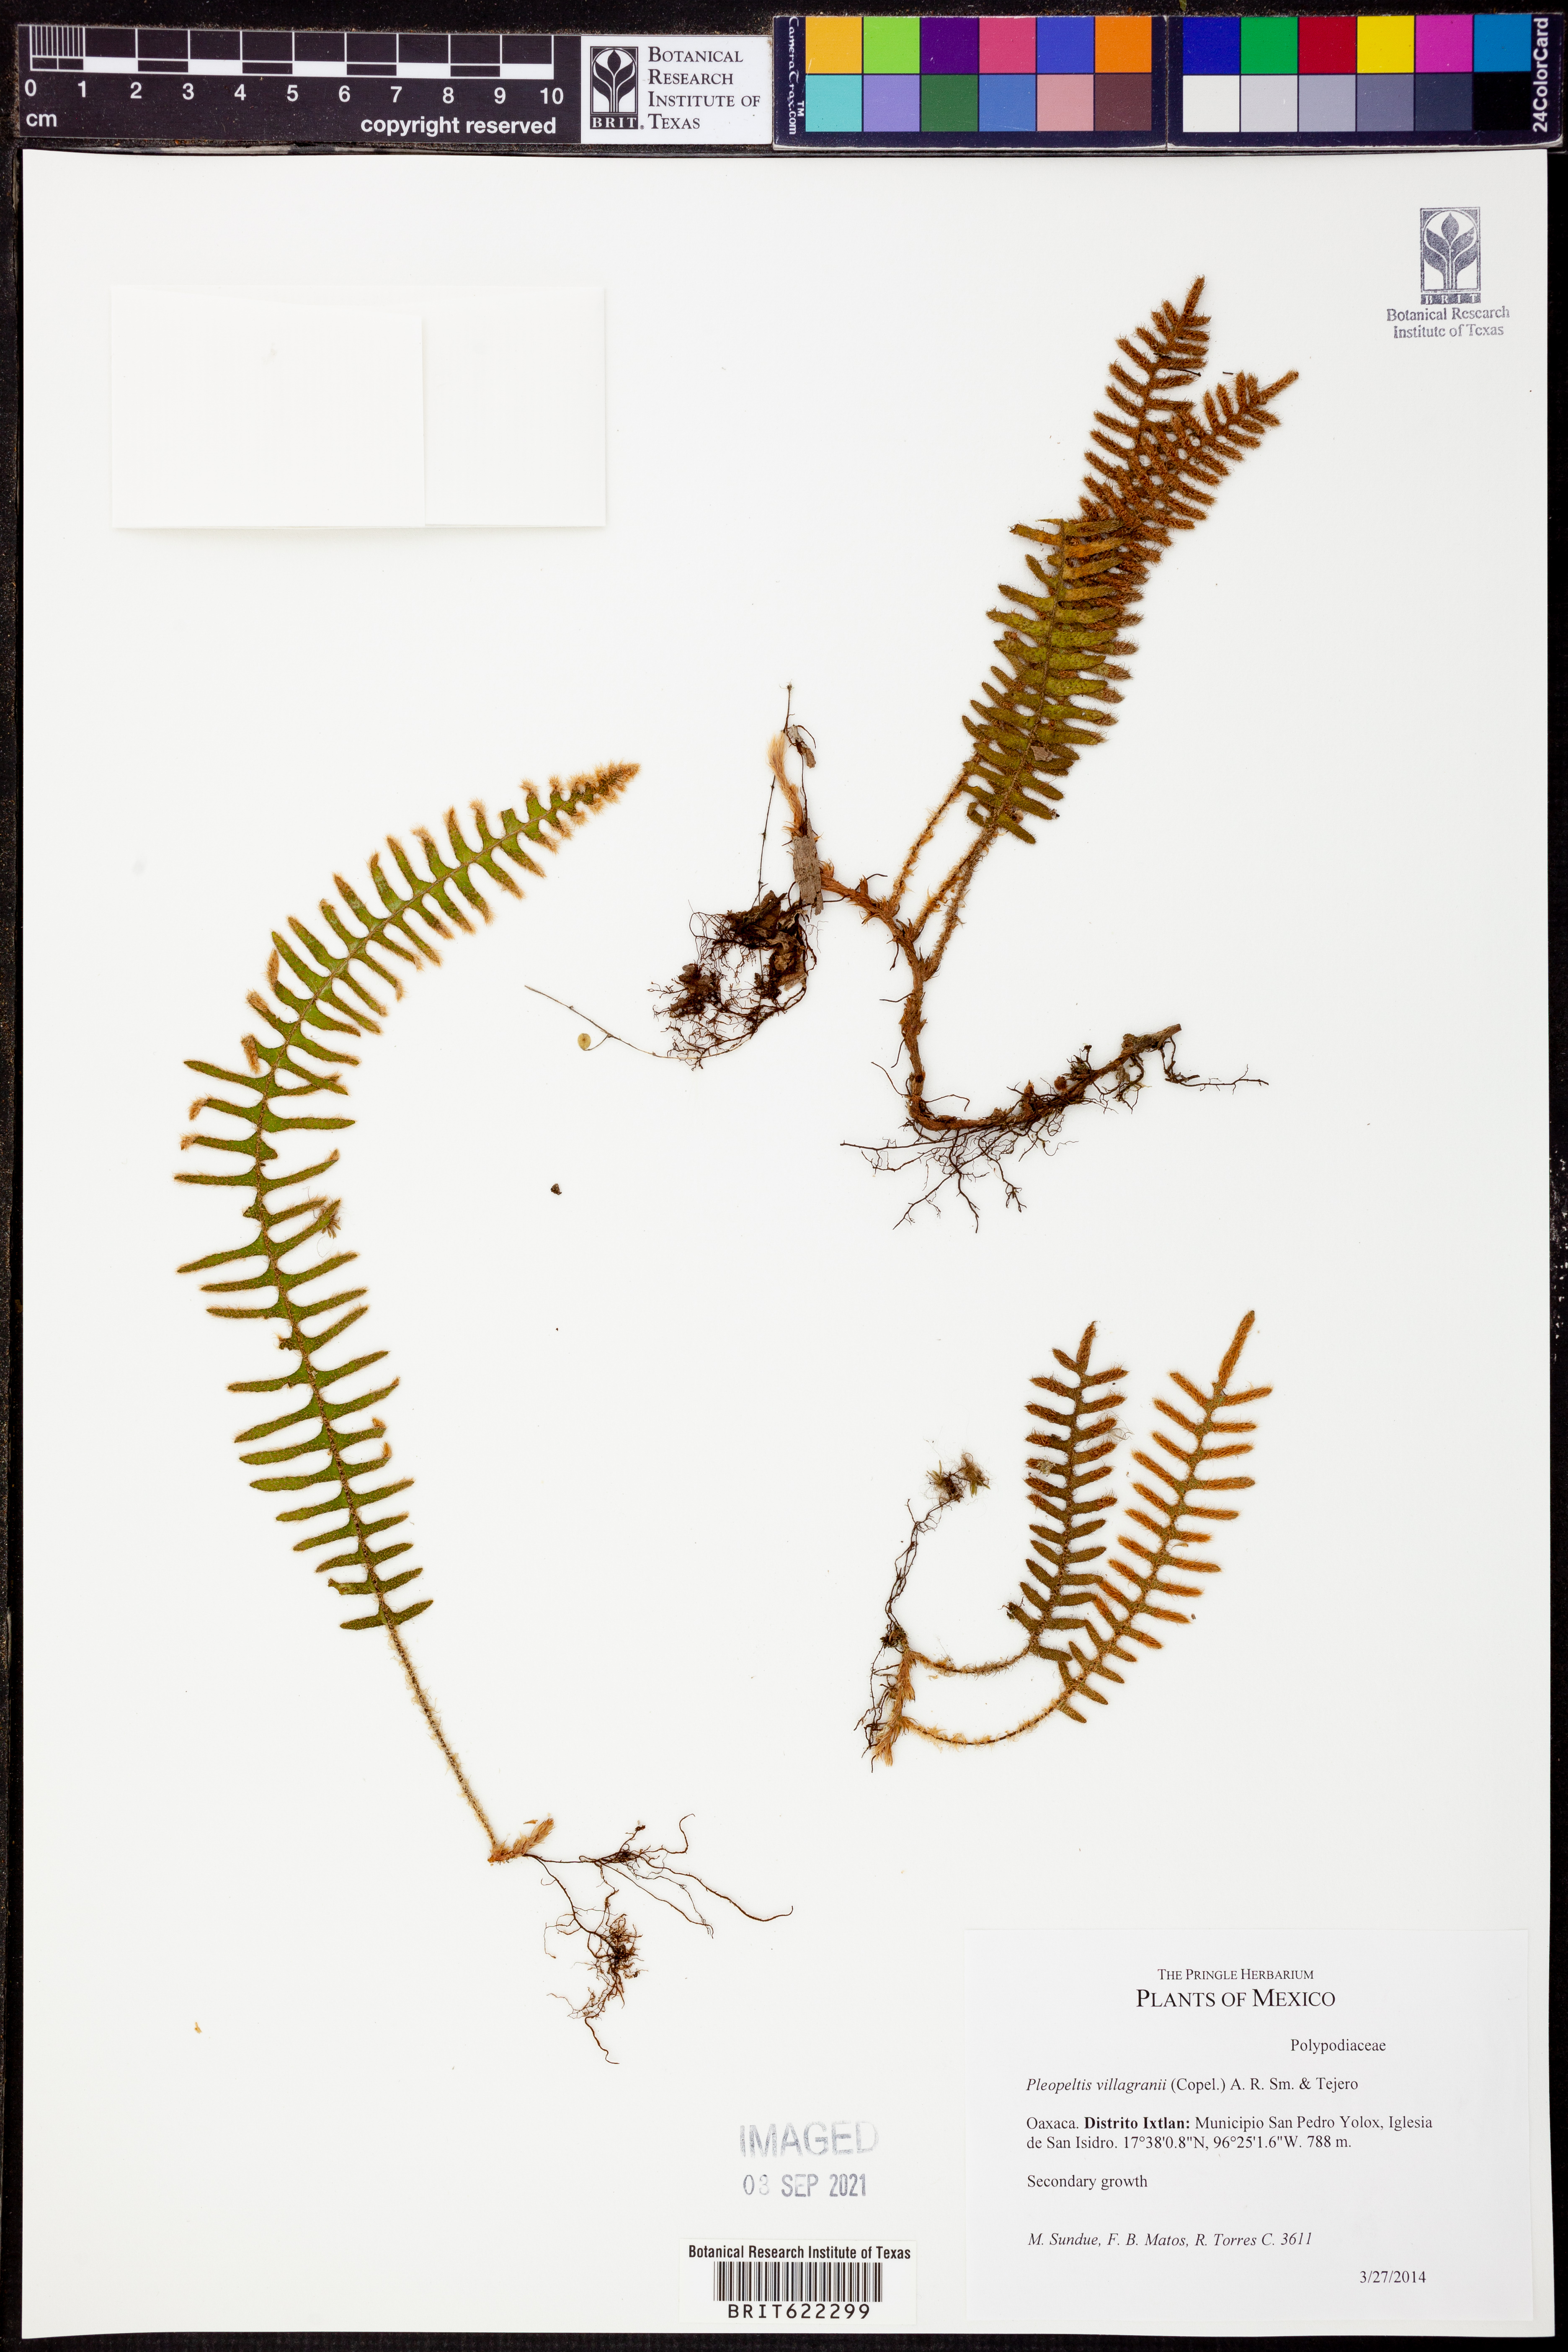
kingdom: Plantae
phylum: Tracheophyta
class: Polypodiopsida
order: Polypodiales
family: Polypodiaceae
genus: Pleopeltis
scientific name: Pleopeltis villagranii
